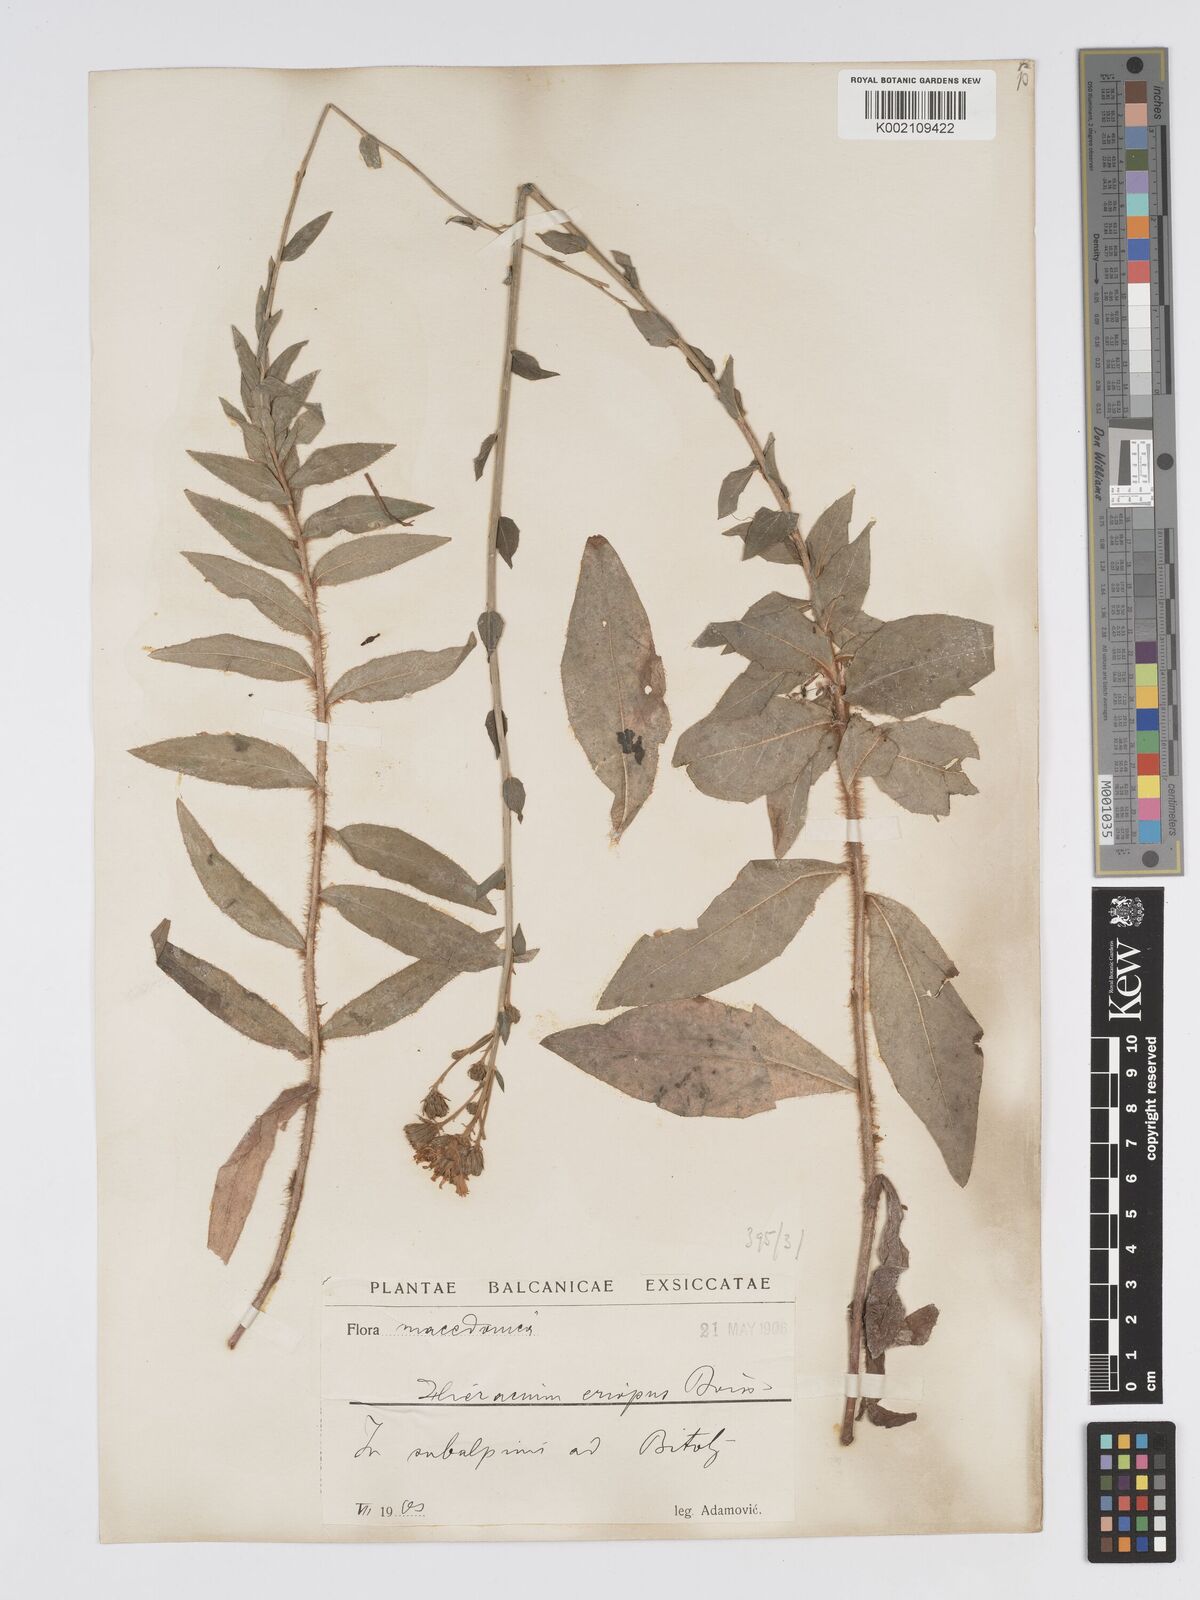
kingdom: Plantae
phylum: Tracheophyta
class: Magnoliopsida
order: Asterales
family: Asteraceae
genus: Hieracium
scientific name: Hieracium racemosum
